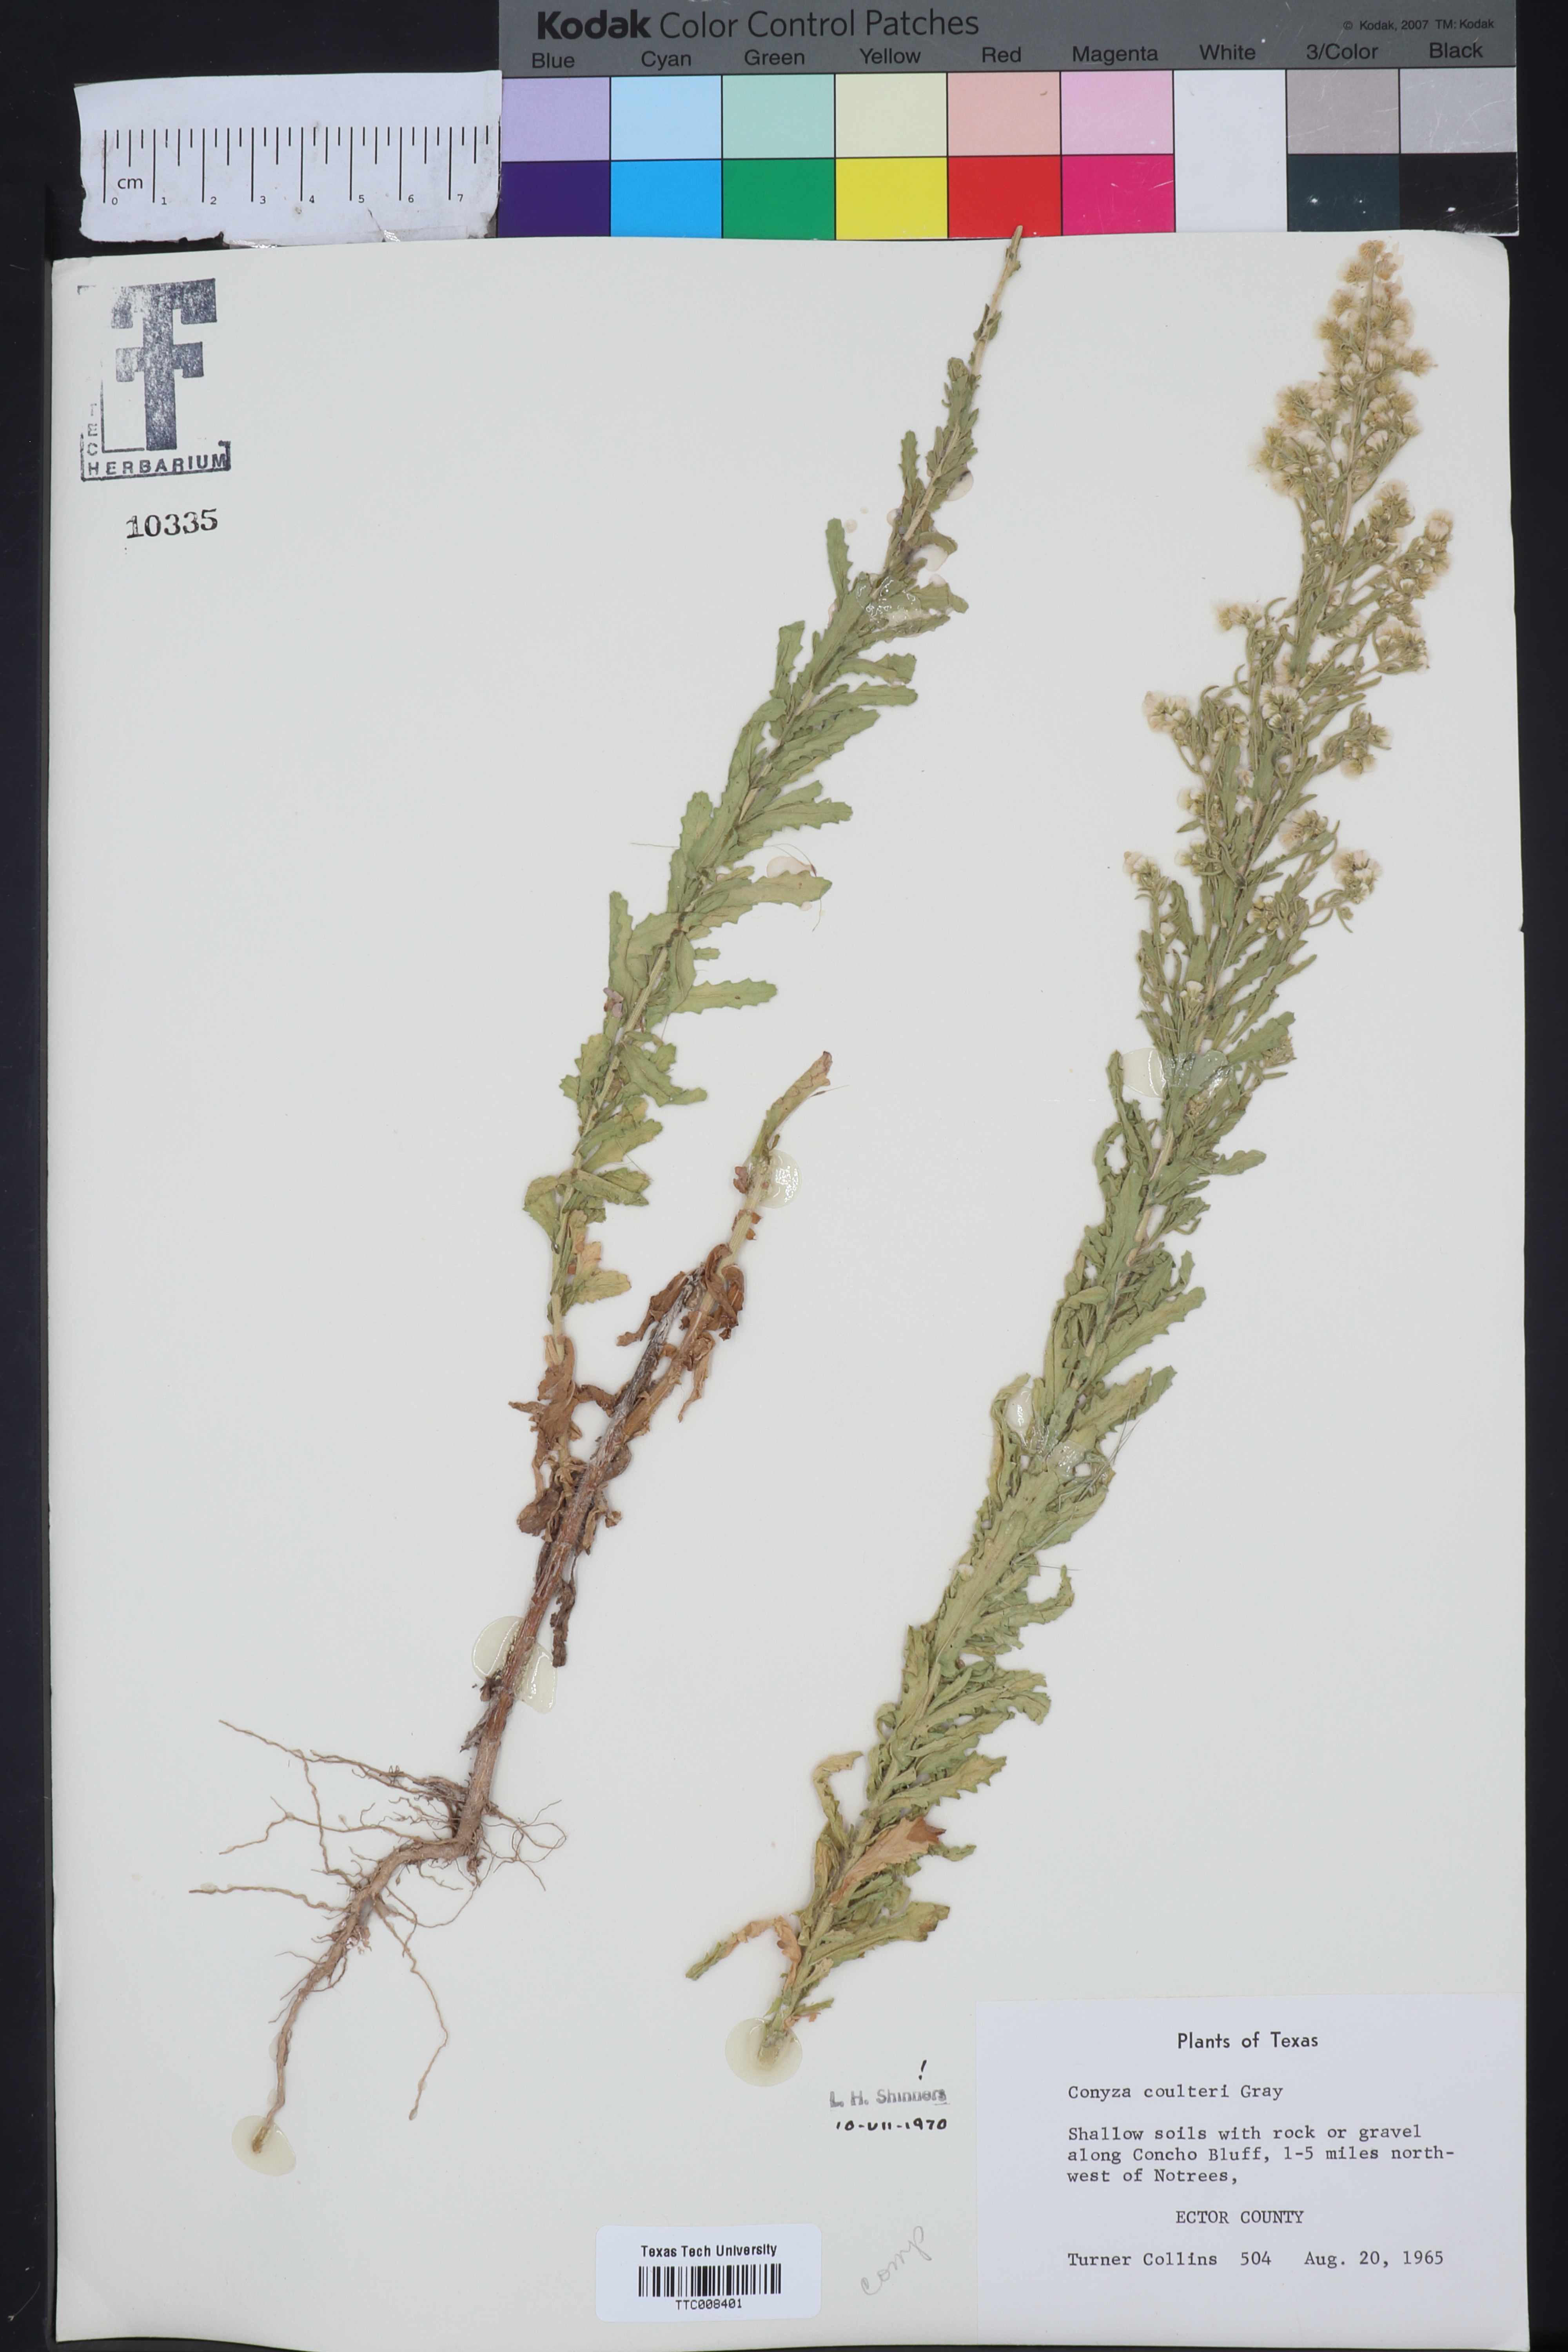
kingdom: Plantae
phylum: Tracheophyta
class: Magnoliopsida
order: Asterales
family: Asteraceae
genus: Laennecia
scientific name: Laennecia coulteri
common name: Coulter's woolwort
